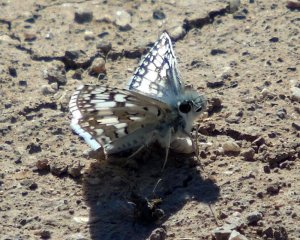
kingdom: Animalia
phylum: Arthropoda
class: Insecta
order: Lepidoptera
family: Hesperiidae
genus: Pyrgus
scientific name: Pyrgus communis
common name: Common Checkered-Skipper
